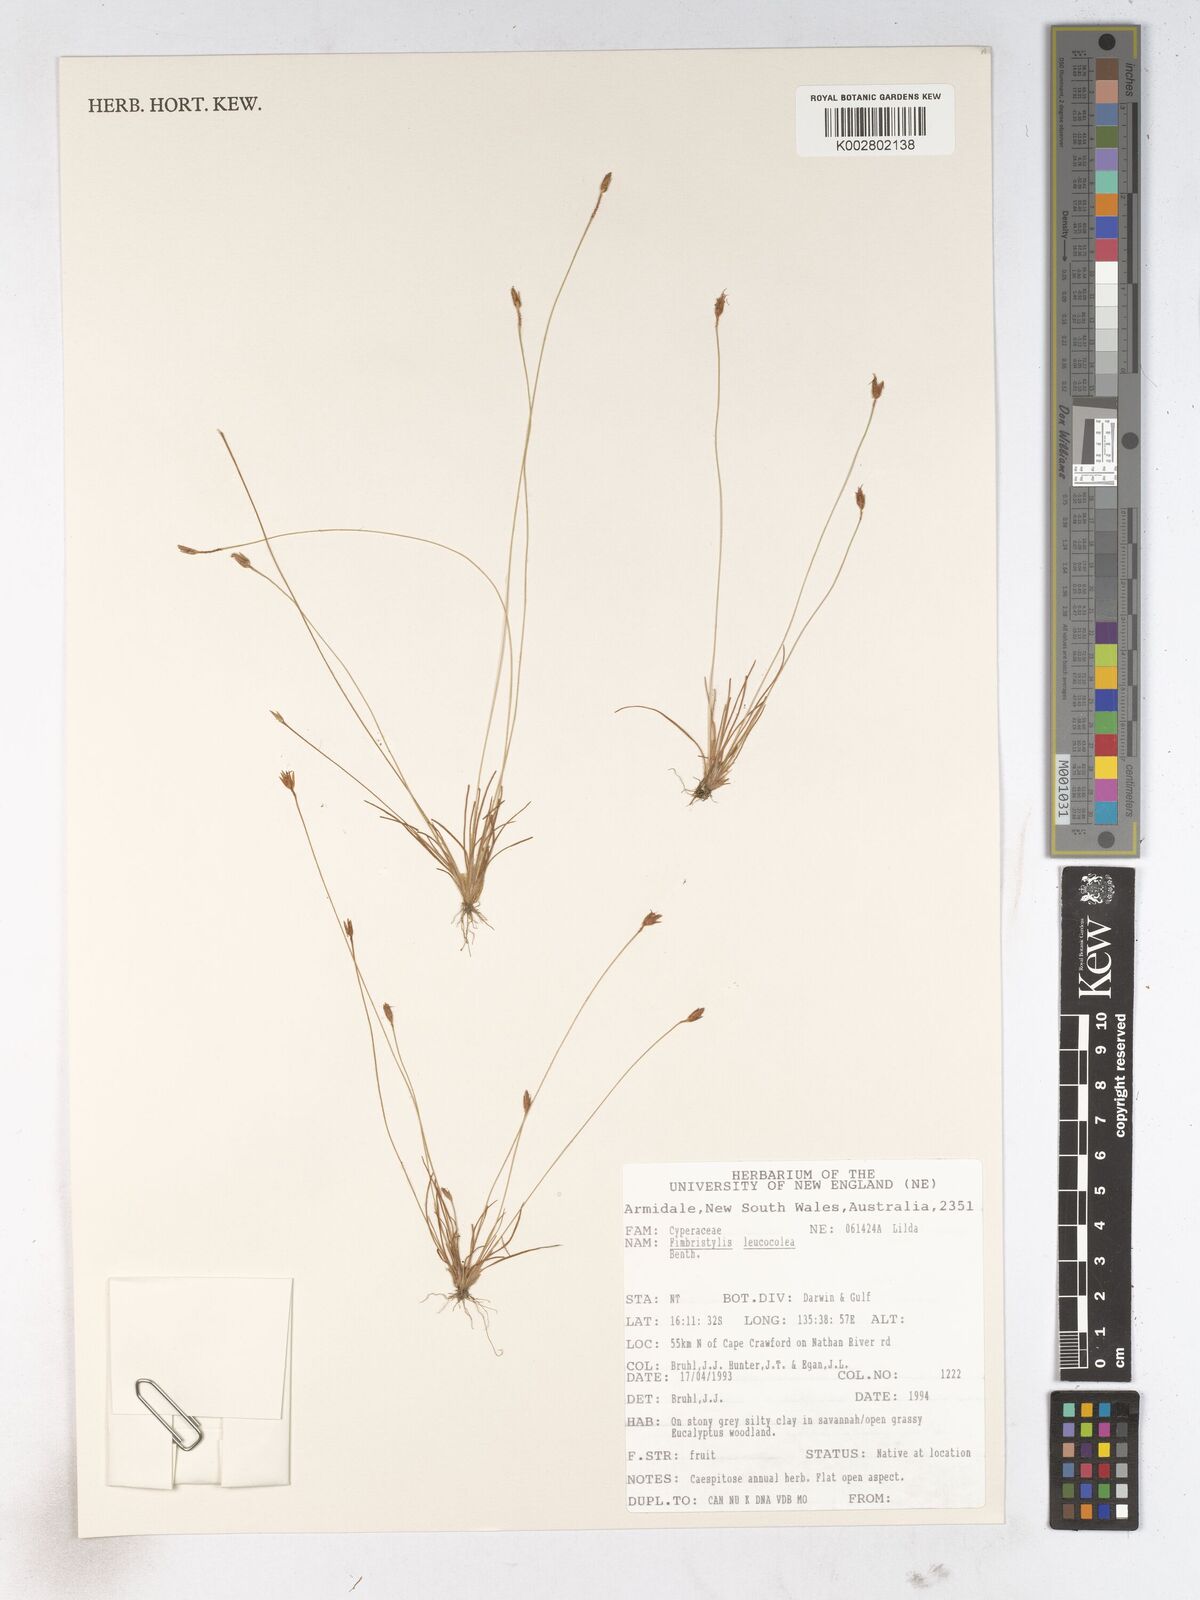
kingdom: Plantae
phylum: Tracheophyta
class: Liliopsida
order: Poales
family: Cyperaceae
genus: Fimbristylis
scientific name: Fimbristylis leucocolea
